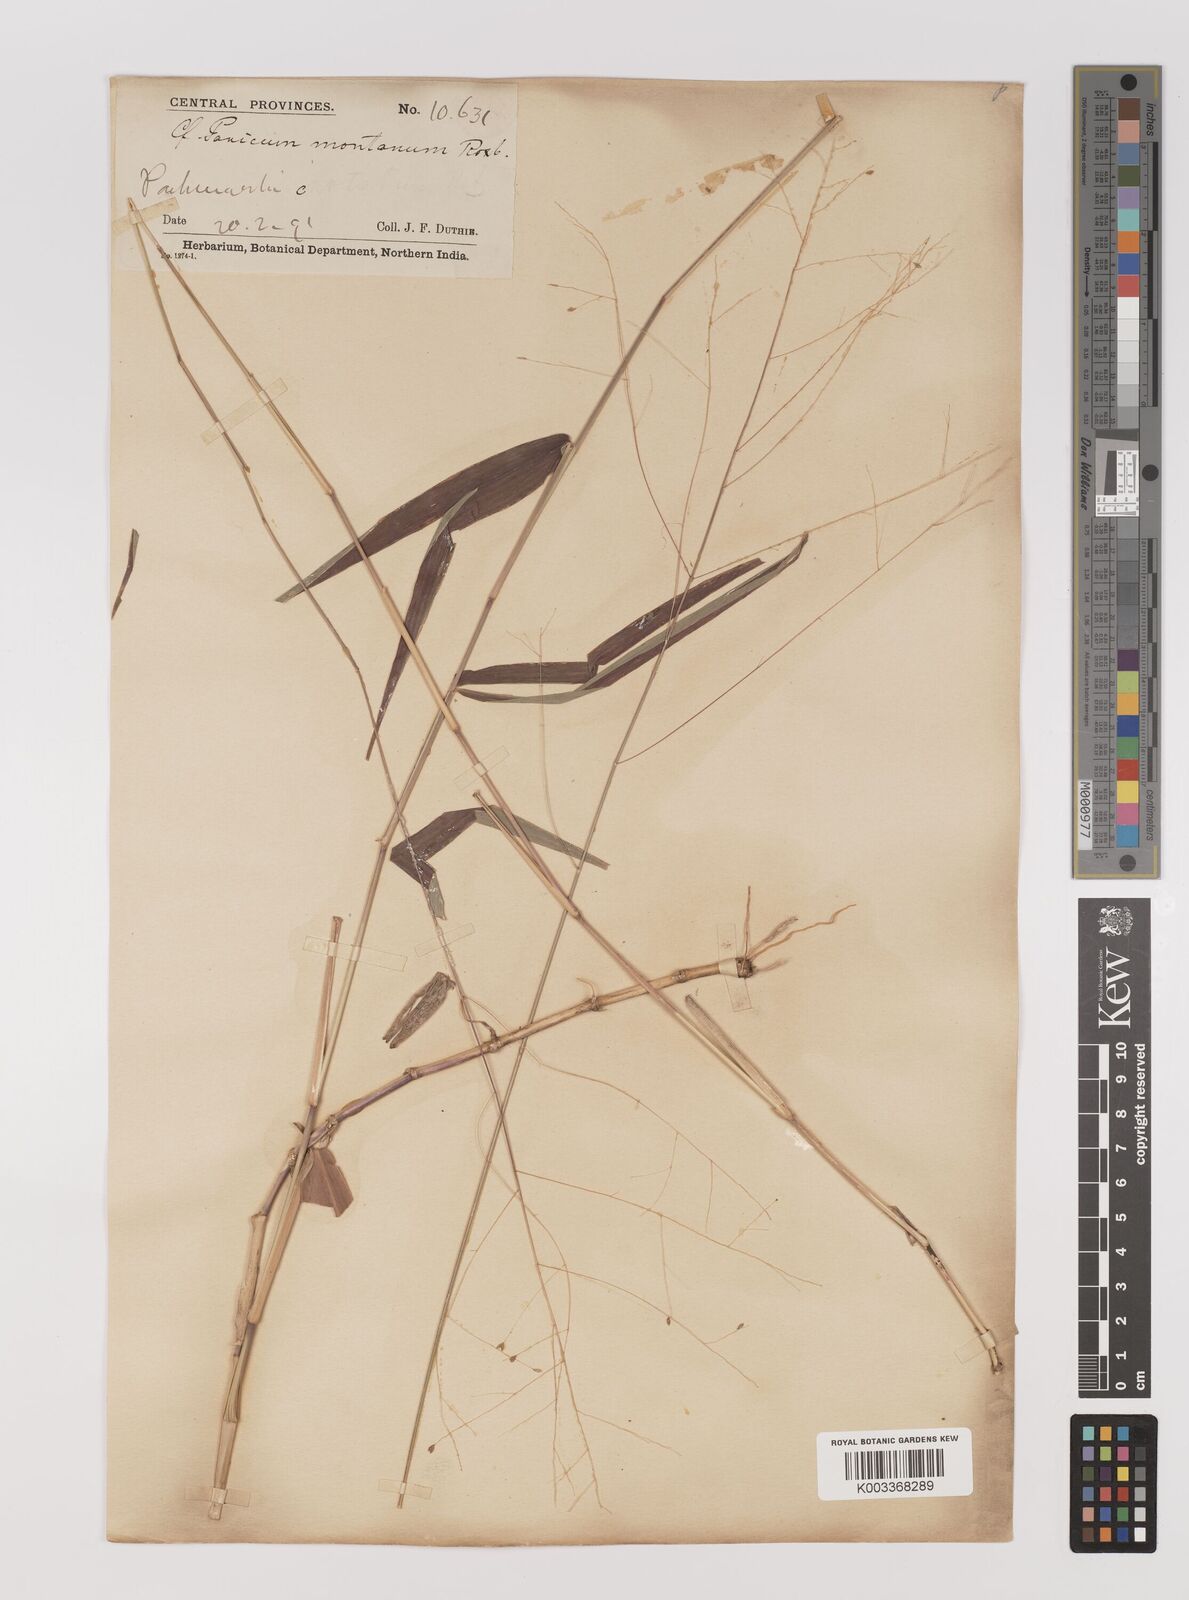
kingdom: Plantae
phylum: Tracheophyta
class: Liliopsida
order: Poales
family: Poaceae
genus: Panicum
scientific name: Panicum notatum
